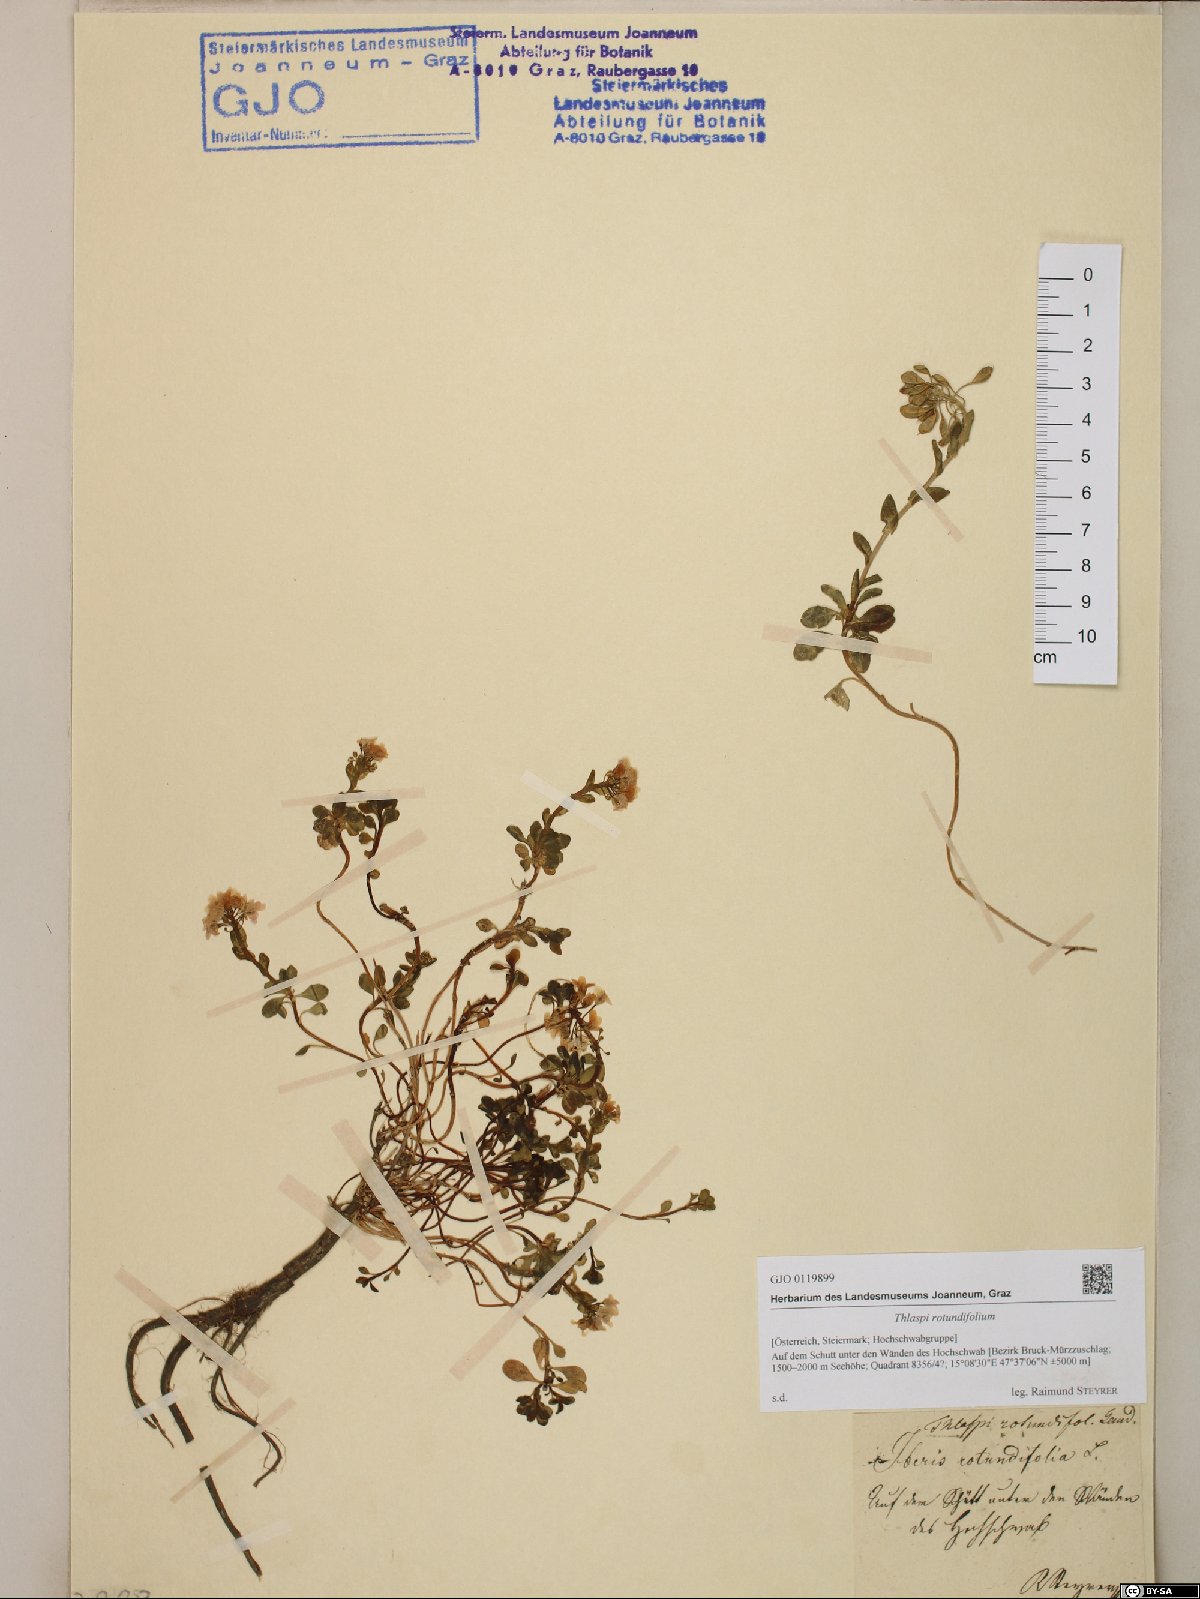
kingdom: Plantae
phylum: Tracheophyta
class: Magnoliopsida
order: Brassicales
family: Brassicaceae
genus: Noccaea
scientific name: Noccaea rotundifolia
